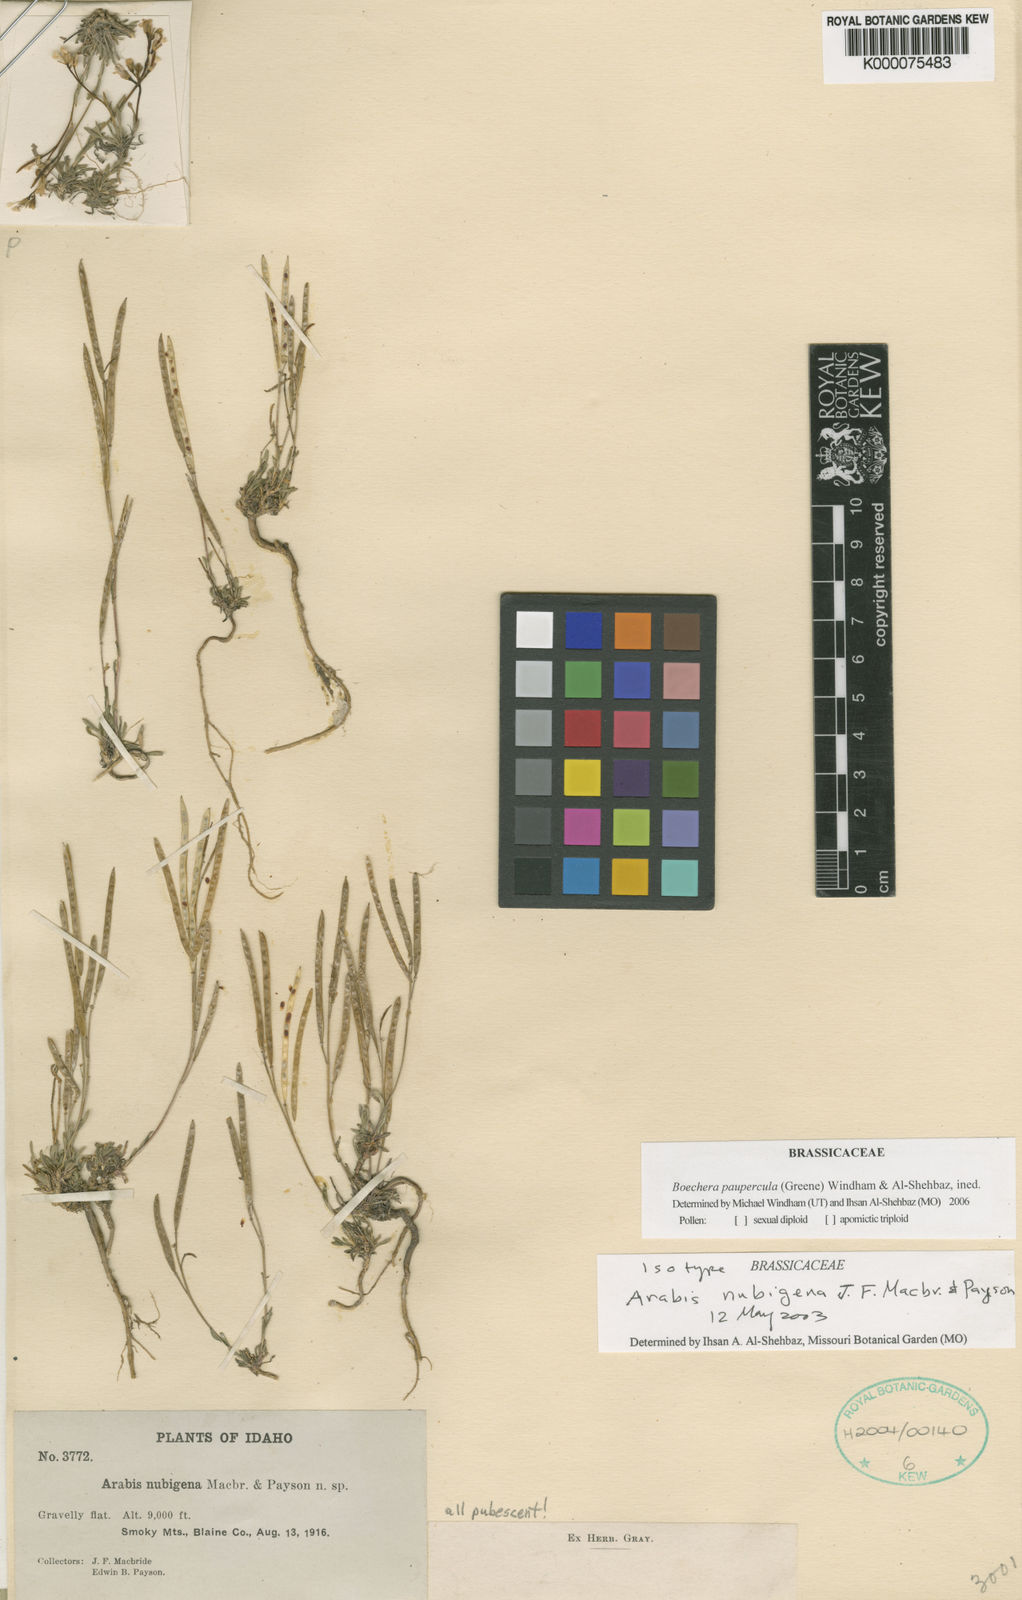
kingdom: Plantae
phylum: Tracheophyta
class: Magnoliopsida
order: Brassicales
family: Brassicaceae
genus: Boechera
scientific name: Boechera paupercula
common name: Small-flowered rockcress
